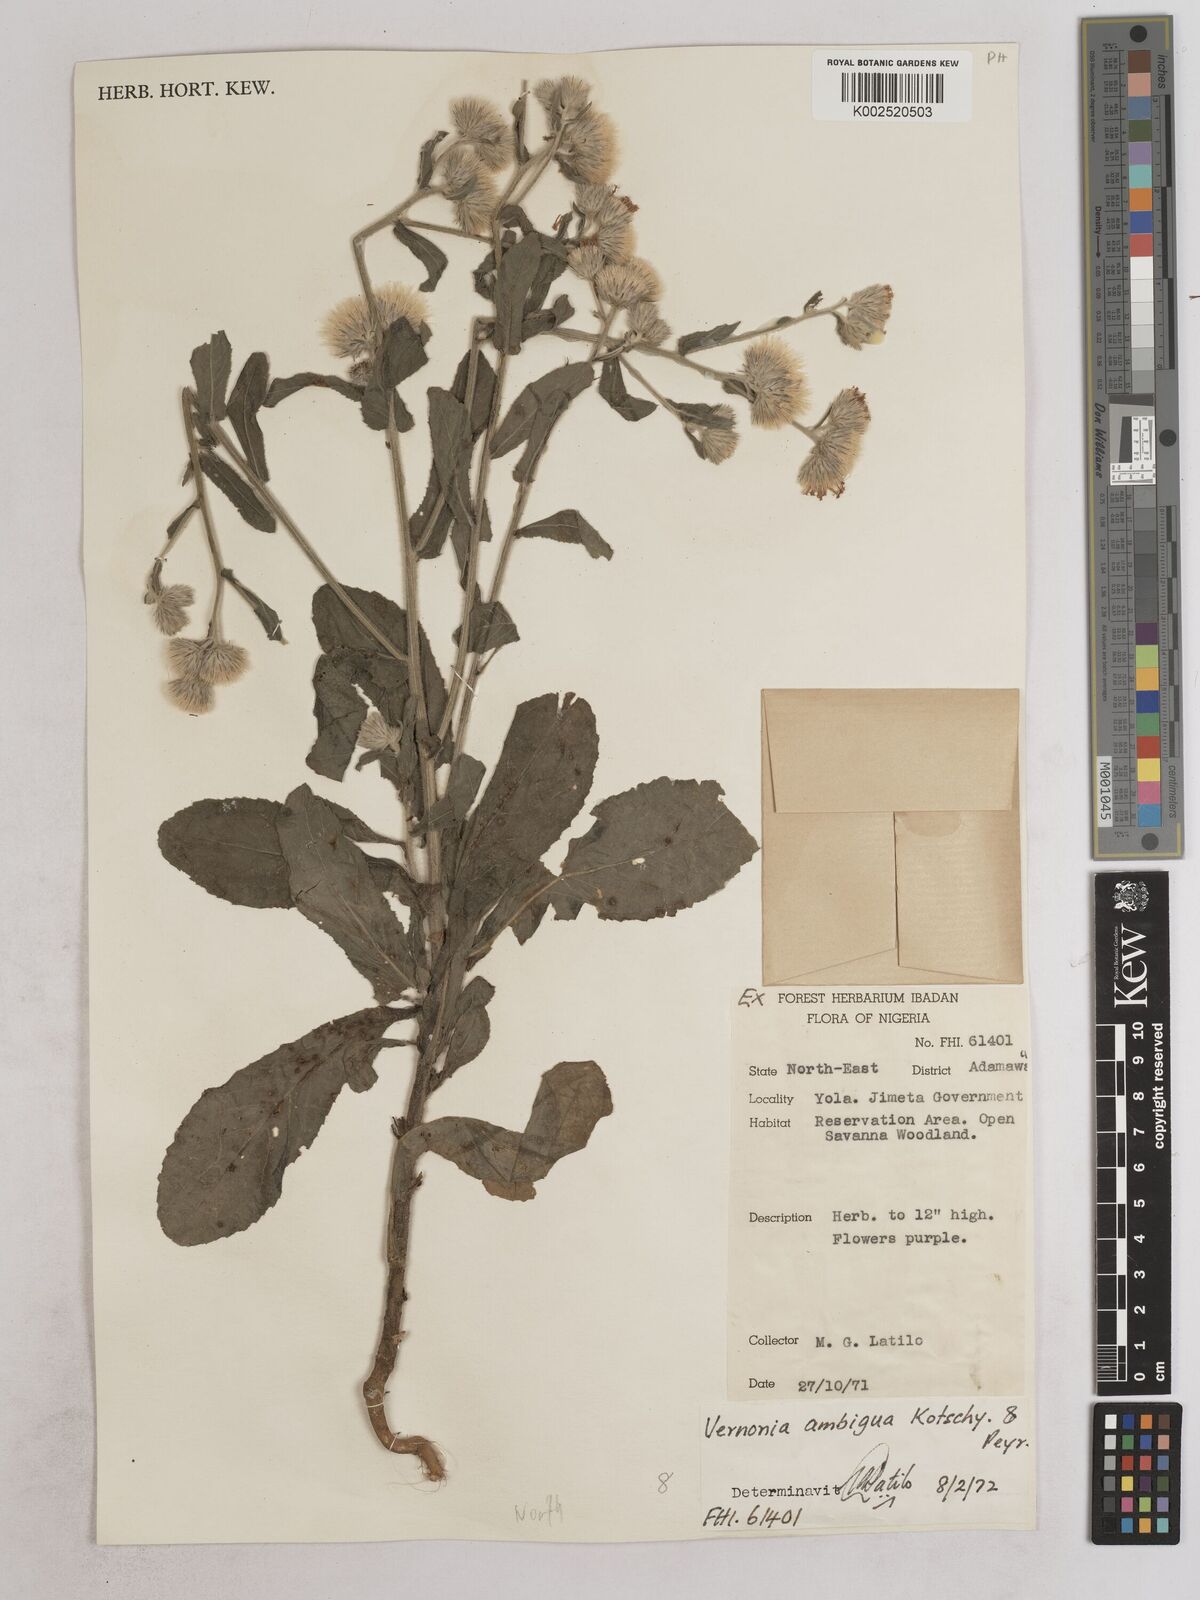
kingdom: Plantae
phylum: Tracheophyta
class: Magnoliopsida
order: Asterales
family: Asteraceae
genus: Vernoniastrum
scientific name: Vernoniastrum ambiguum
